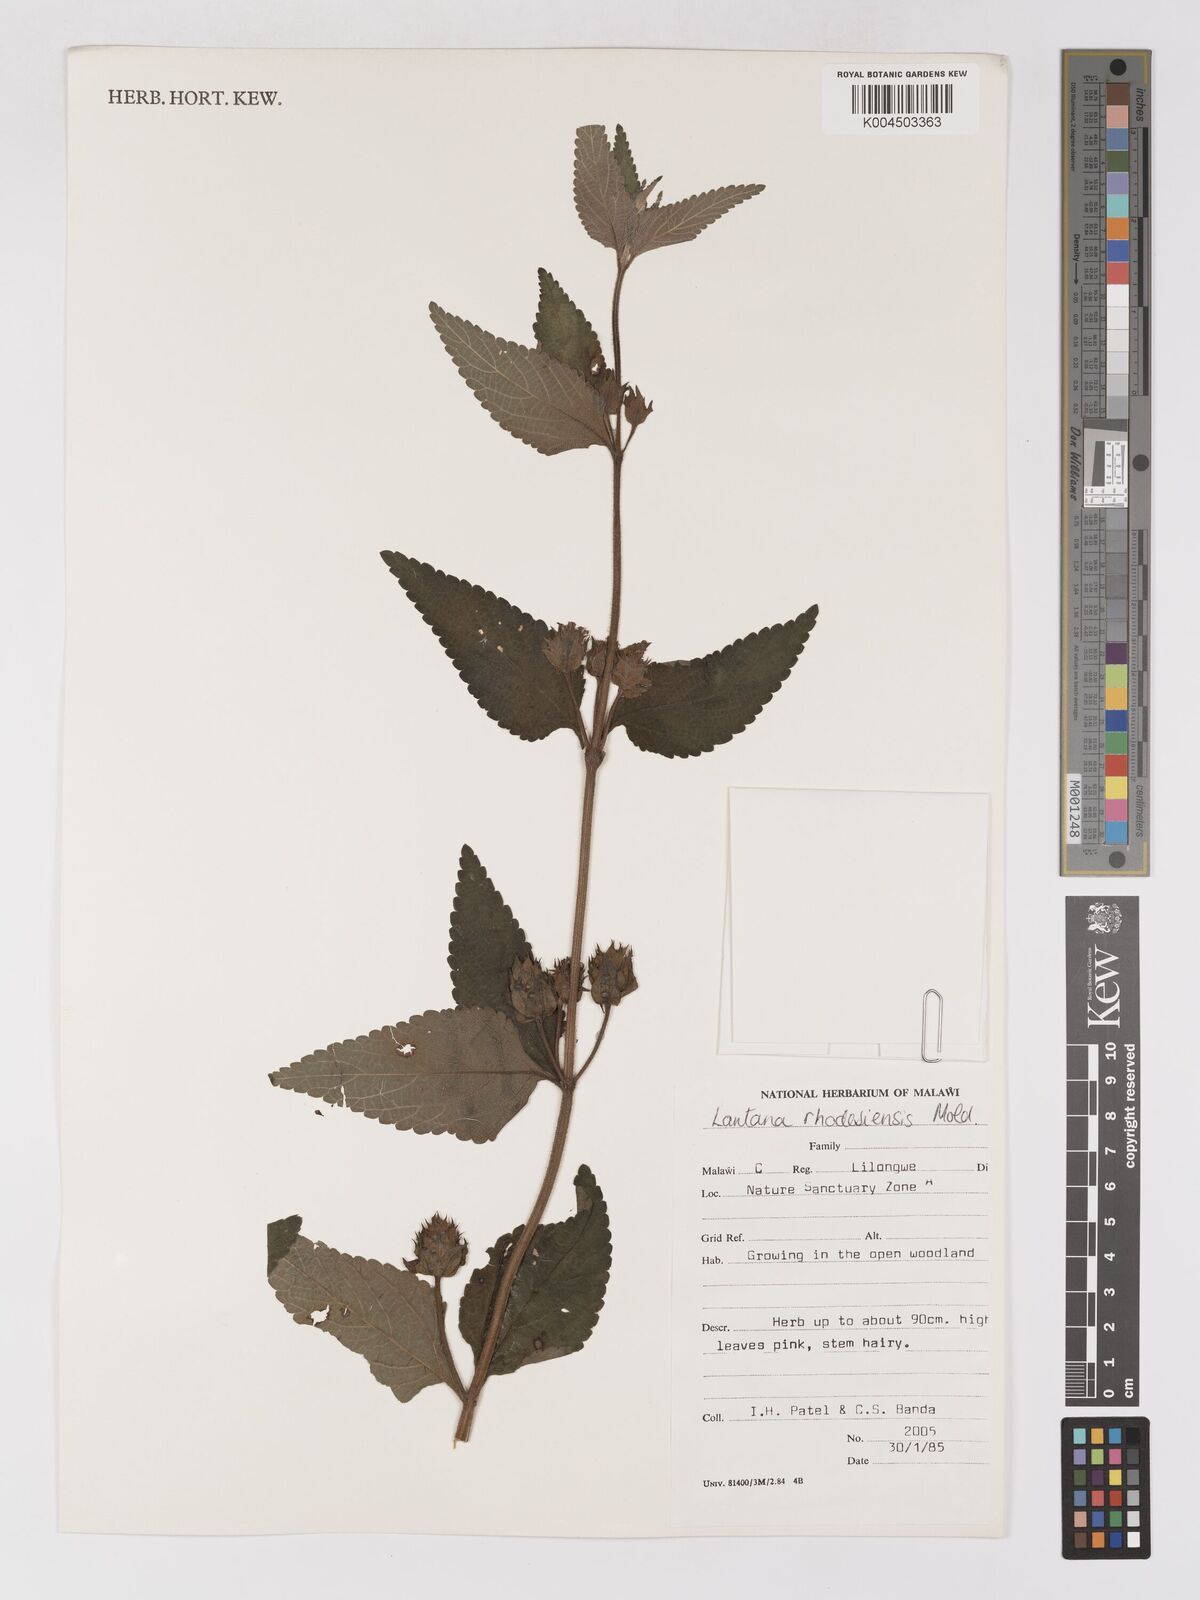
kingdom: Plantae
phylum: Tracheophyta
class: Magnoliopsida
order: Lamiales
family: Verbenaceae
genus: Lantana
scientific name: Lantana ukambensis
